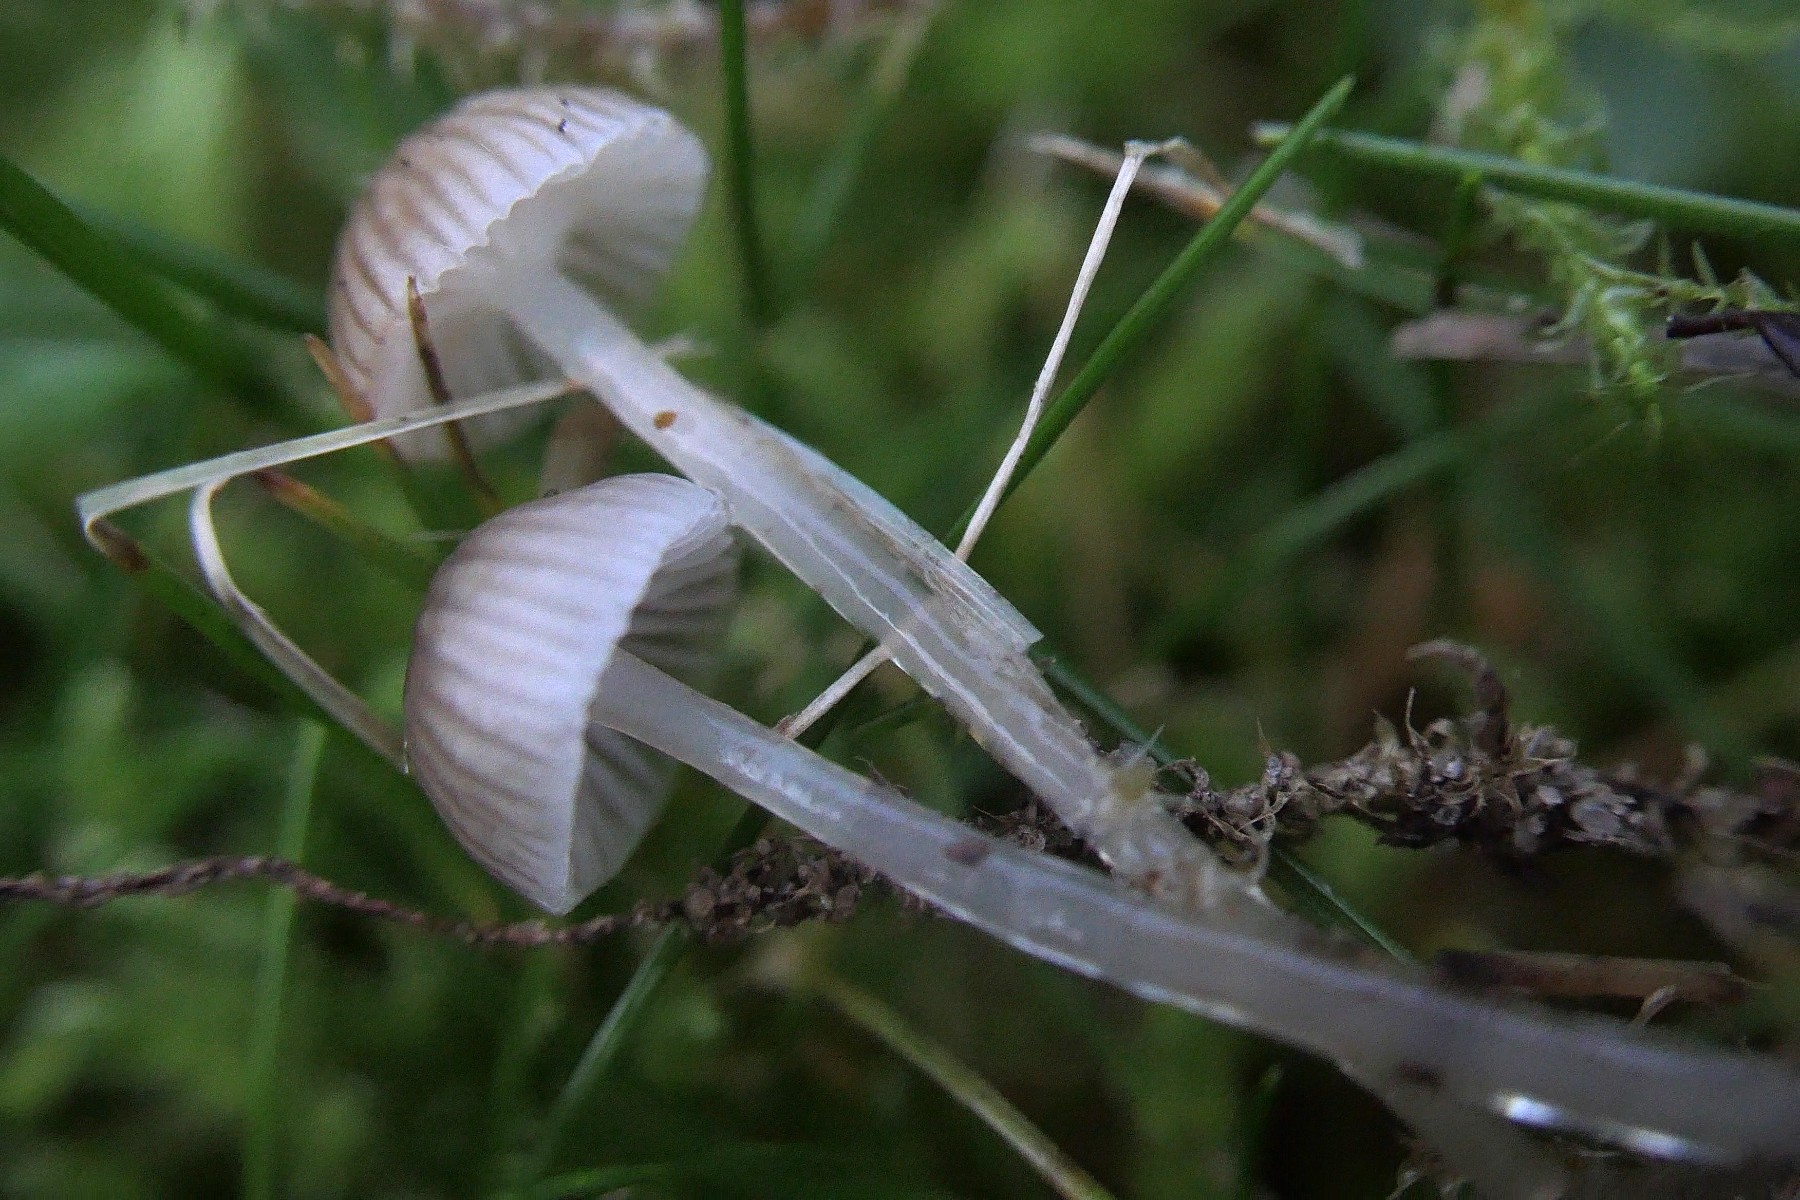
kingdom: Fungi
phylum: Basidiomycota
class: Agaricomycetes
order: Agaricales
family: Mycenaceae
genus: Mycena
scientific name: Mycena clavicularis
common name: fyrre-huesvamp
